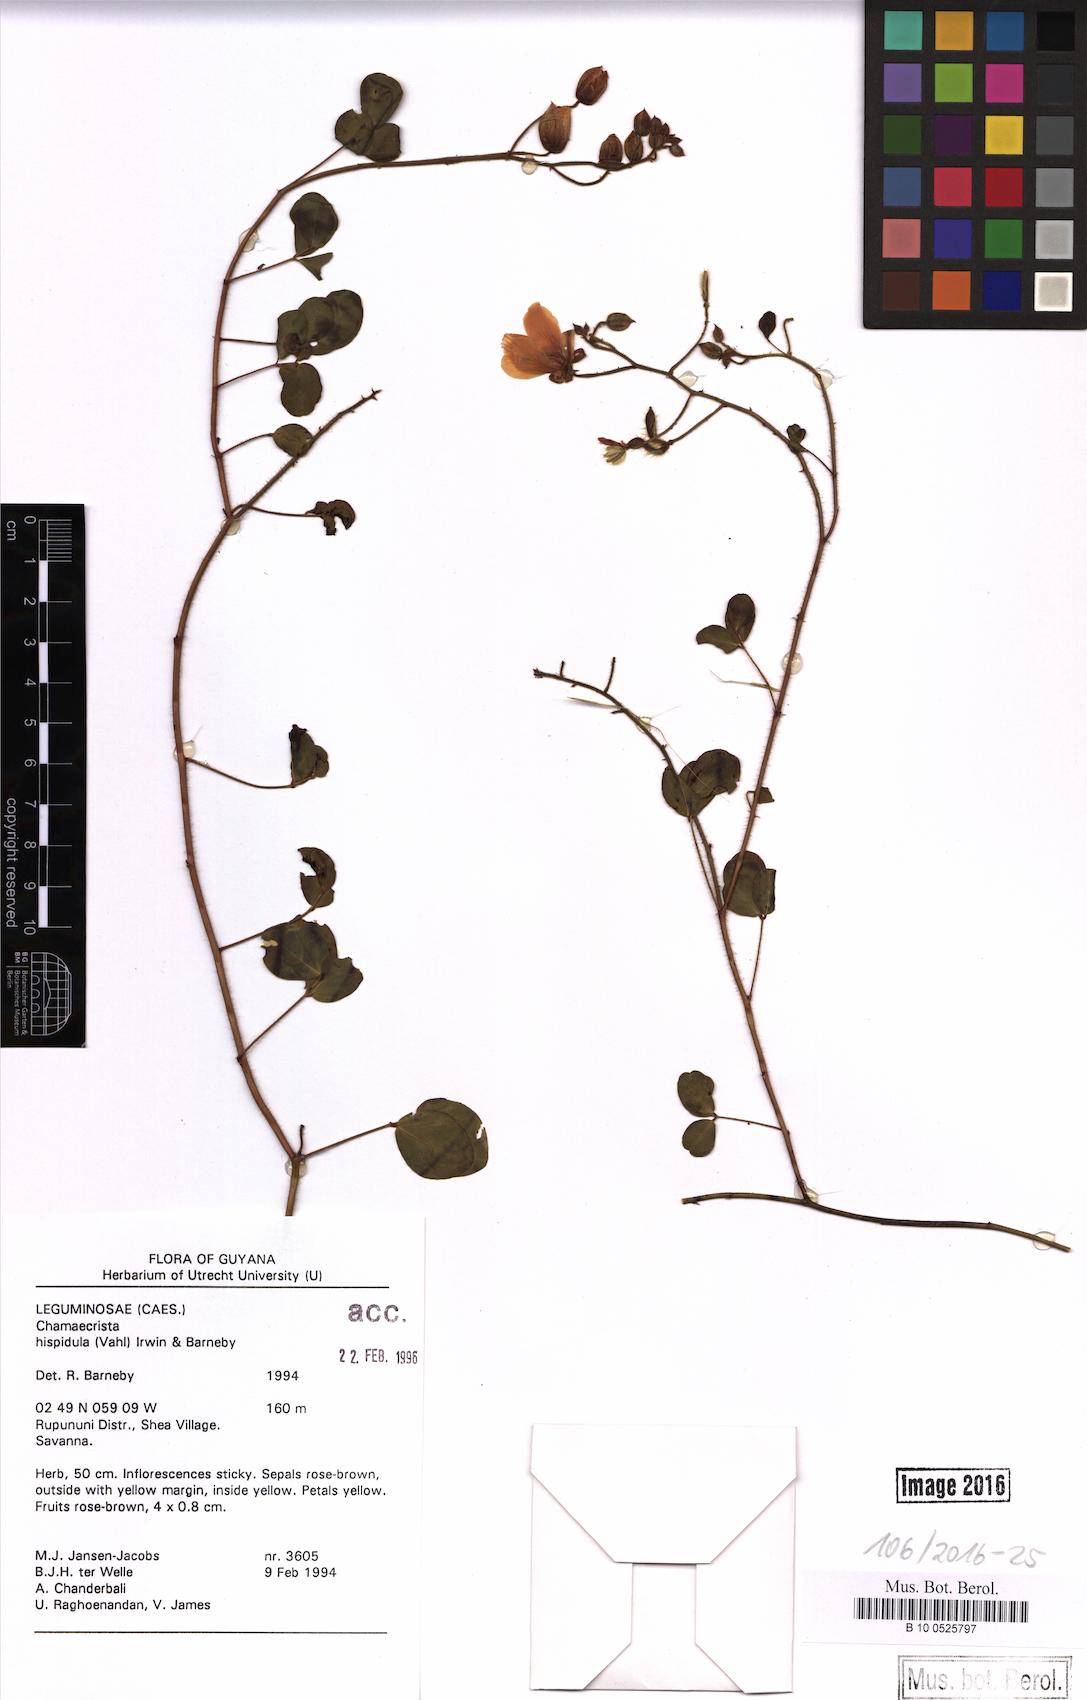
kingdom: Plantae
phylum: Tracheophyta
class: Magnoliopsida
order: Fabales
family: Fabaceae
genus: Chamaecrista
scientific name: Chamaecrista hispidula
